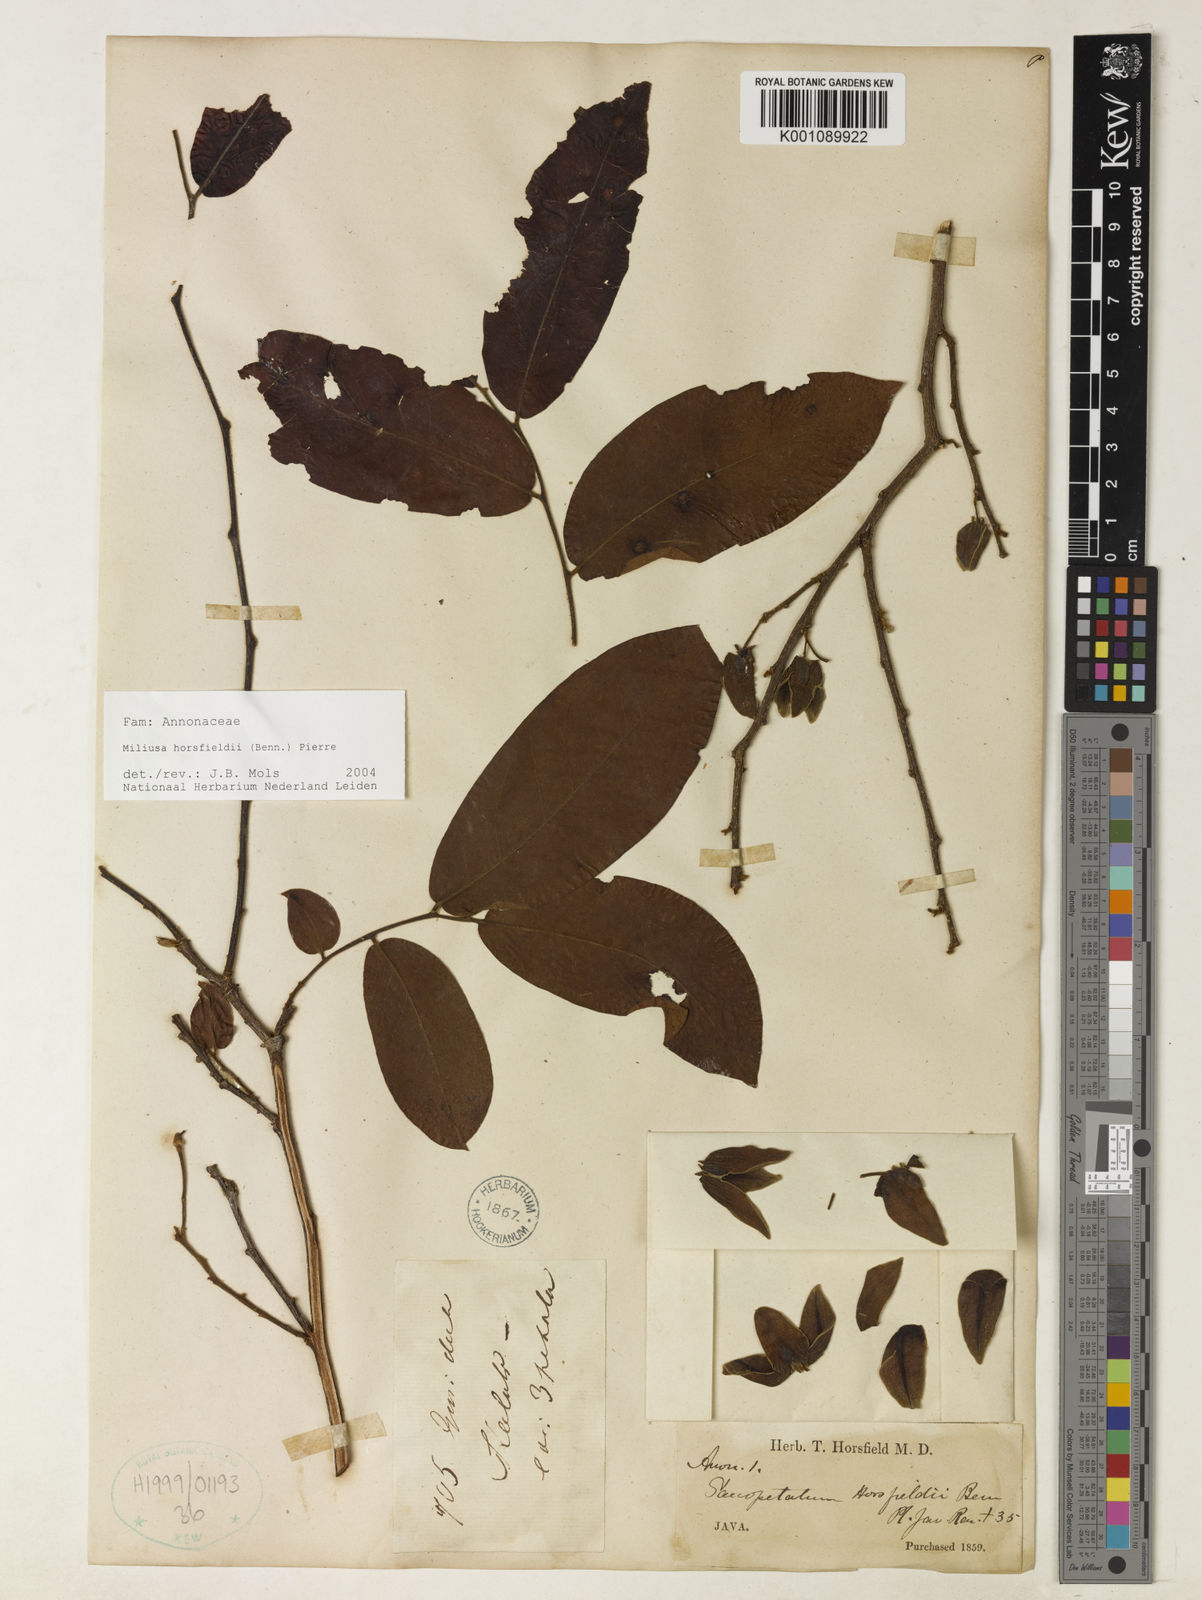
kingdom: Plantae
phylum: Tracheophyta
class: Magnoliopsida
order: Magnoliales
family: Annonaceae
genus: Miliusa
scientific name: Miliusa horsfieldii
